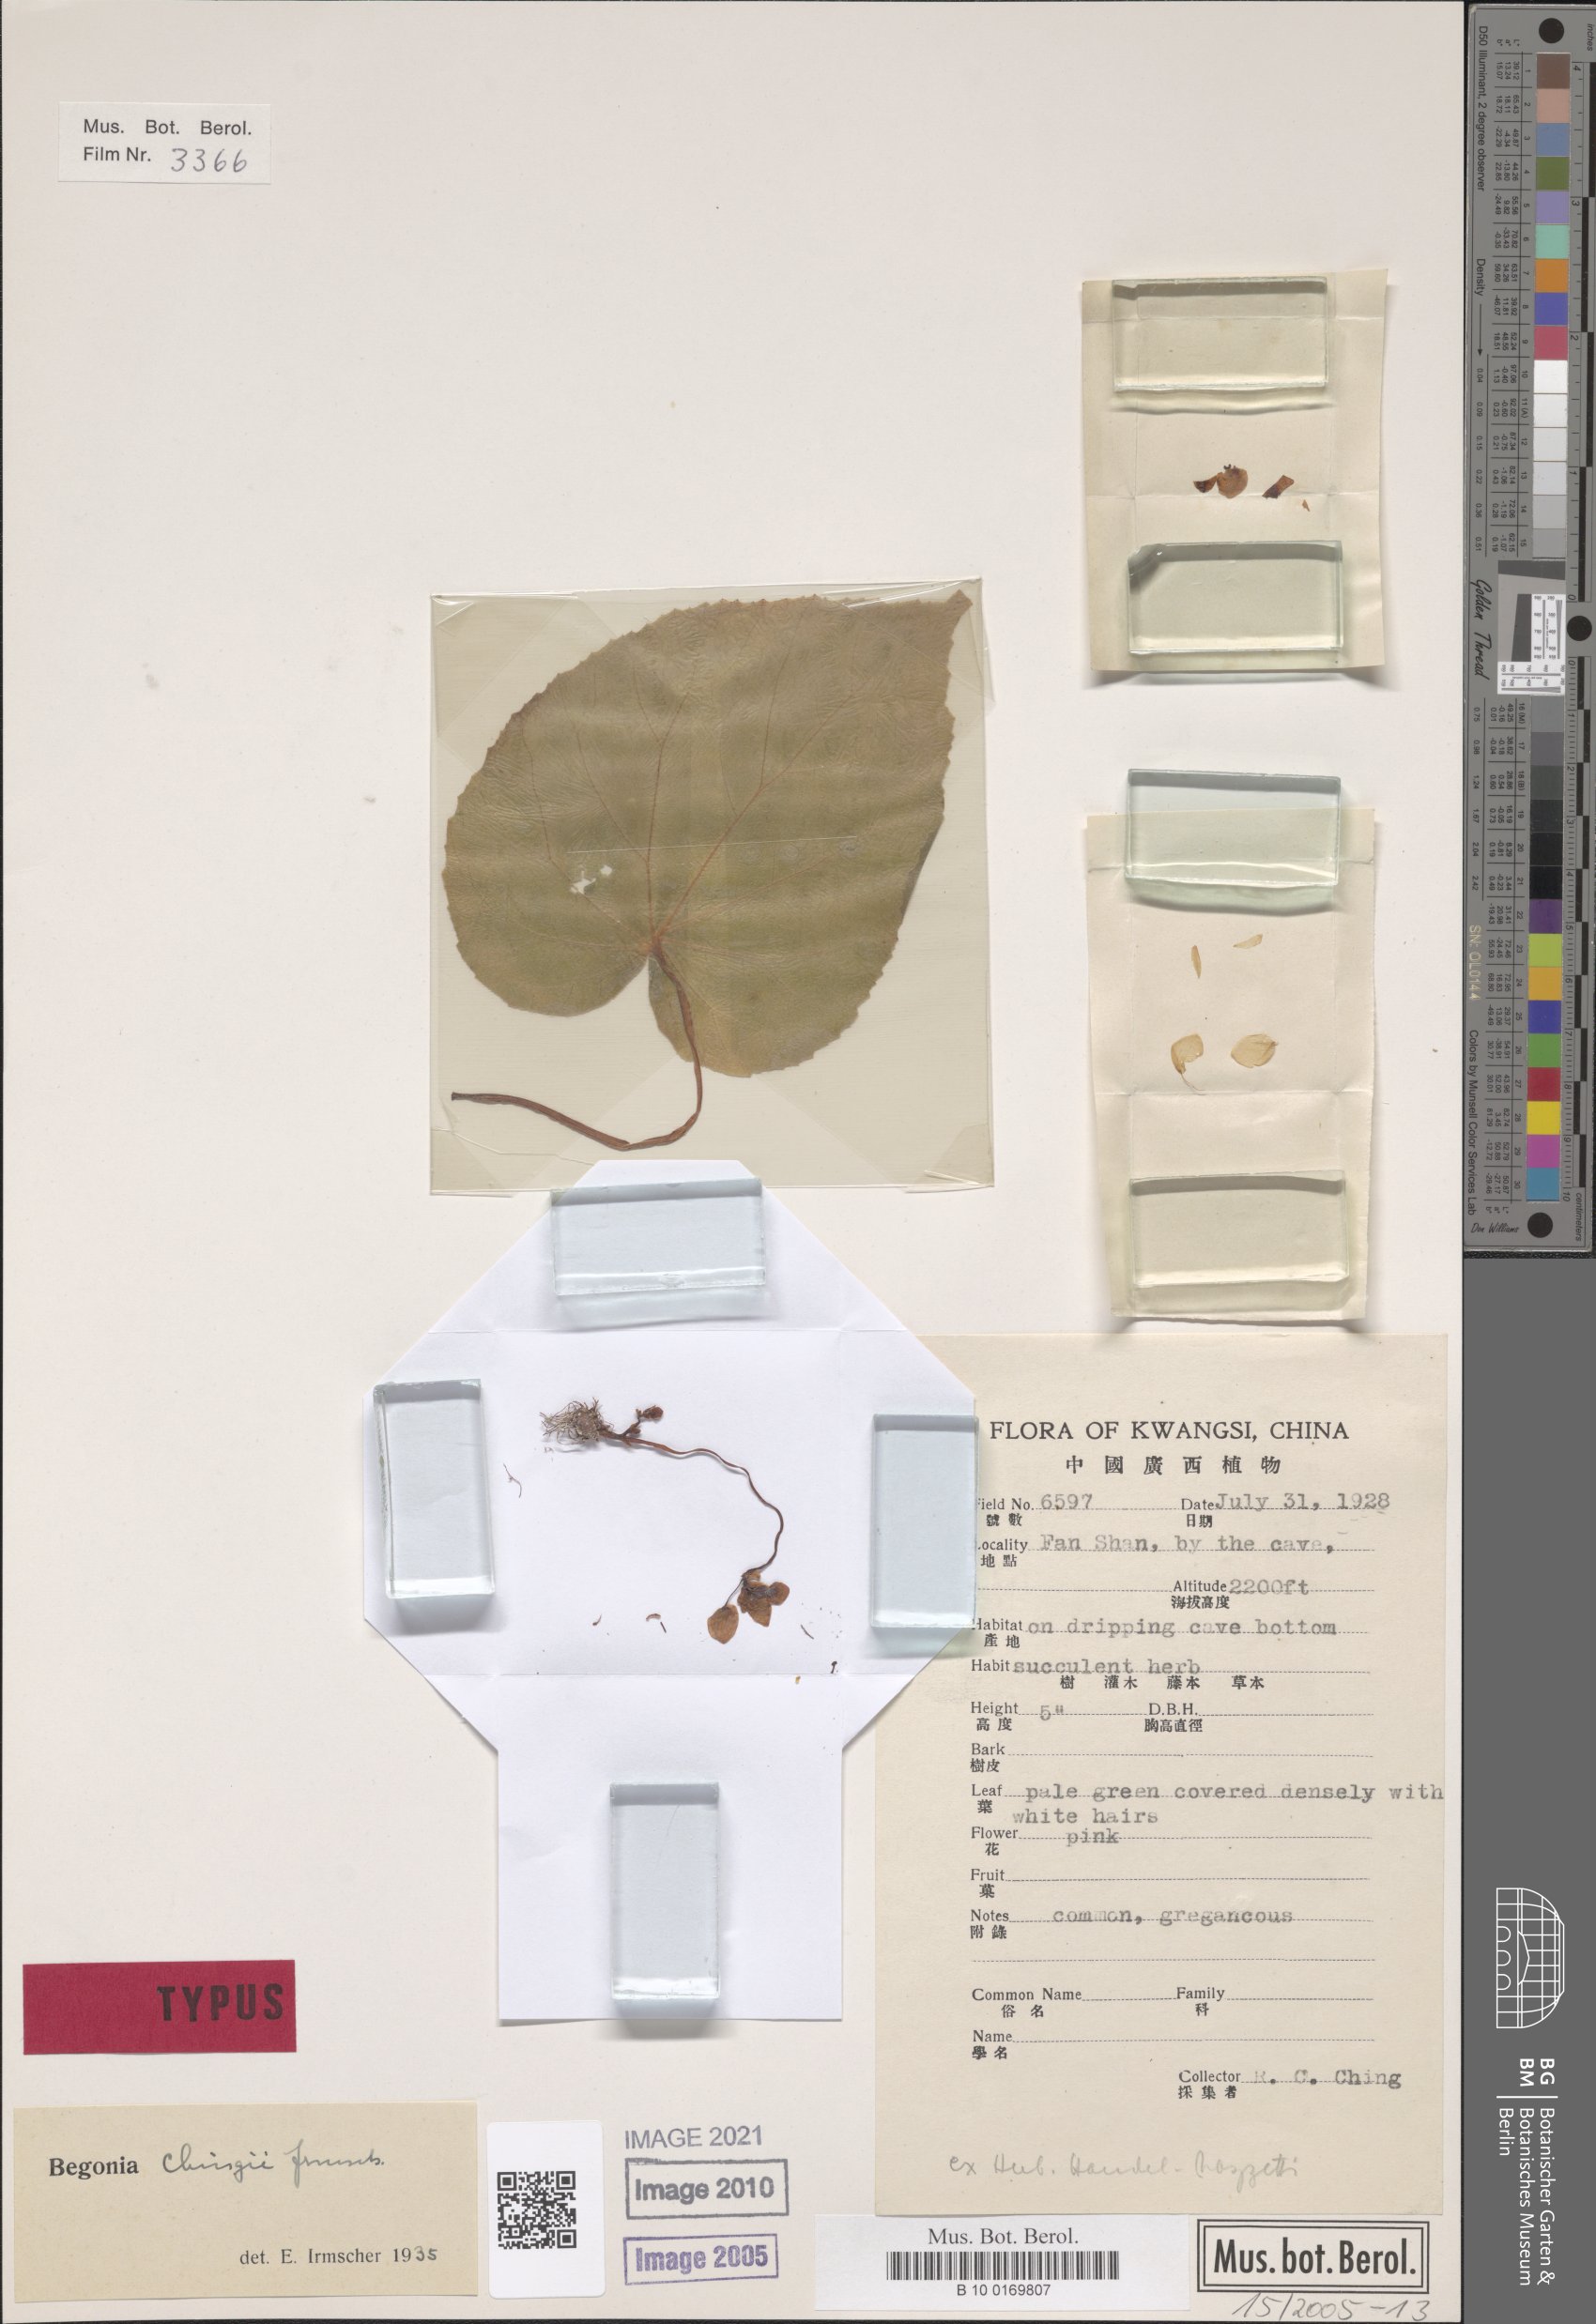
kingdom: Plantae
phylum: Tracheophyta
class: Magnoliopsida
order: Cucurbitales
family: Begoniaceae
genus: Begonia
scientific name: Begonia chingii
